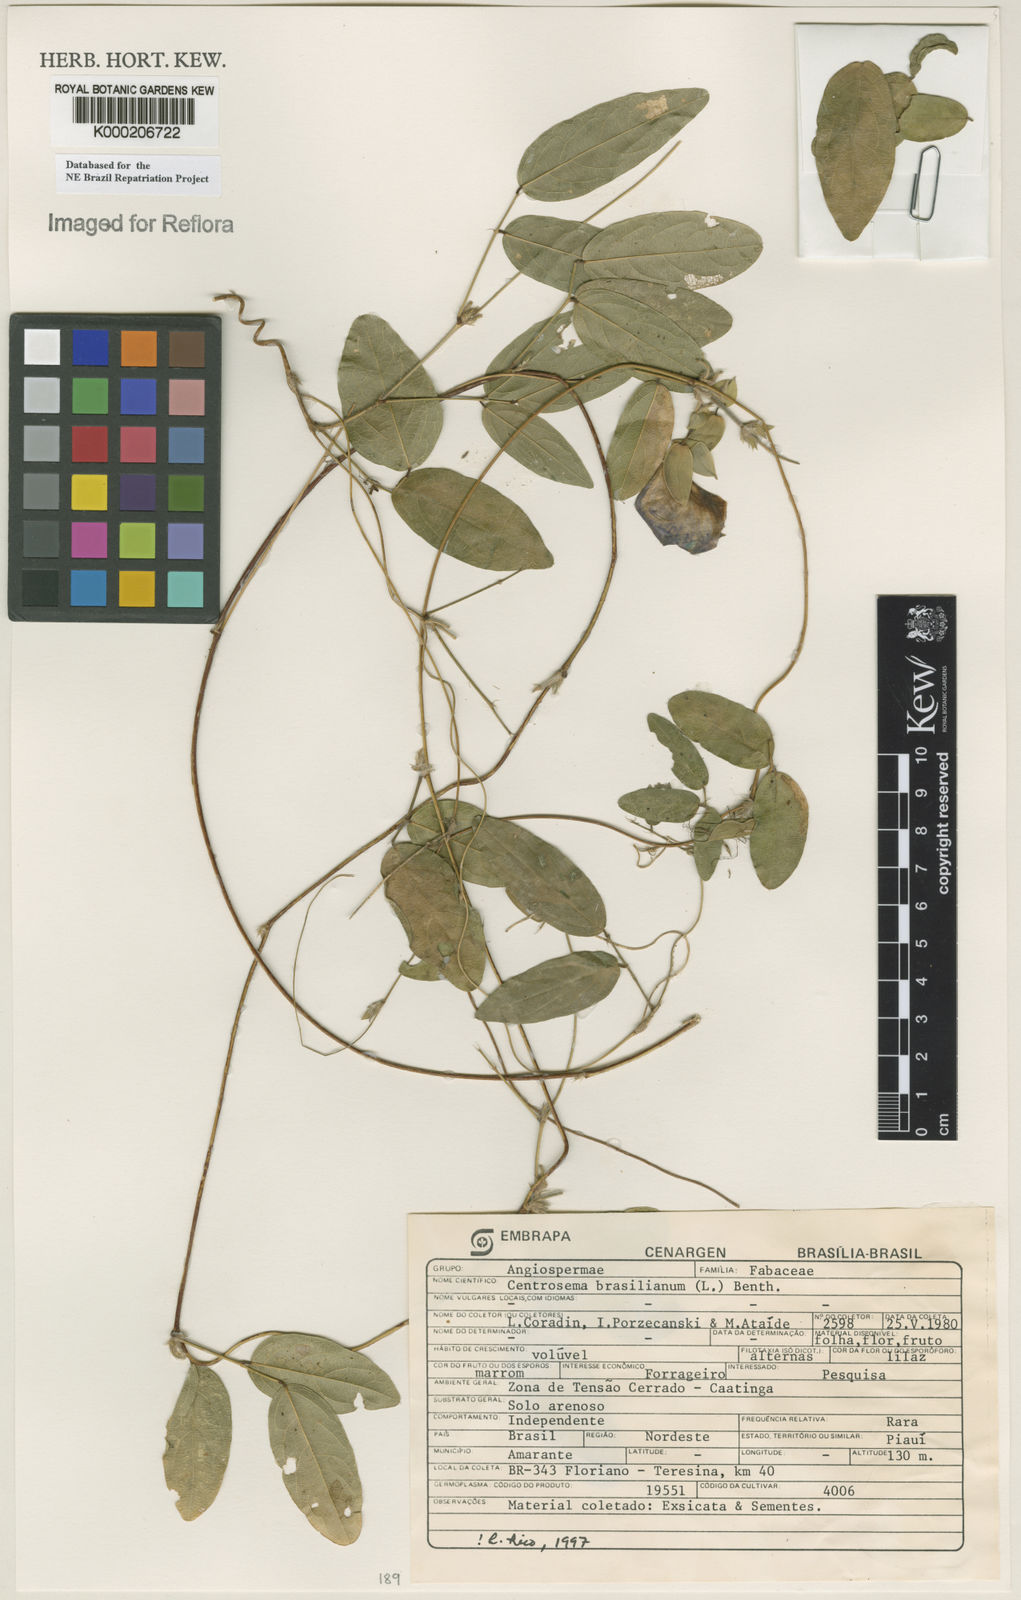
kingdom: Plantae
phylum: Tracheophyta
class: Magnoliopsida
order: Fabales
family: Fabaceae
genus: Centrosema
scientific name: Centrosema brasilianum
